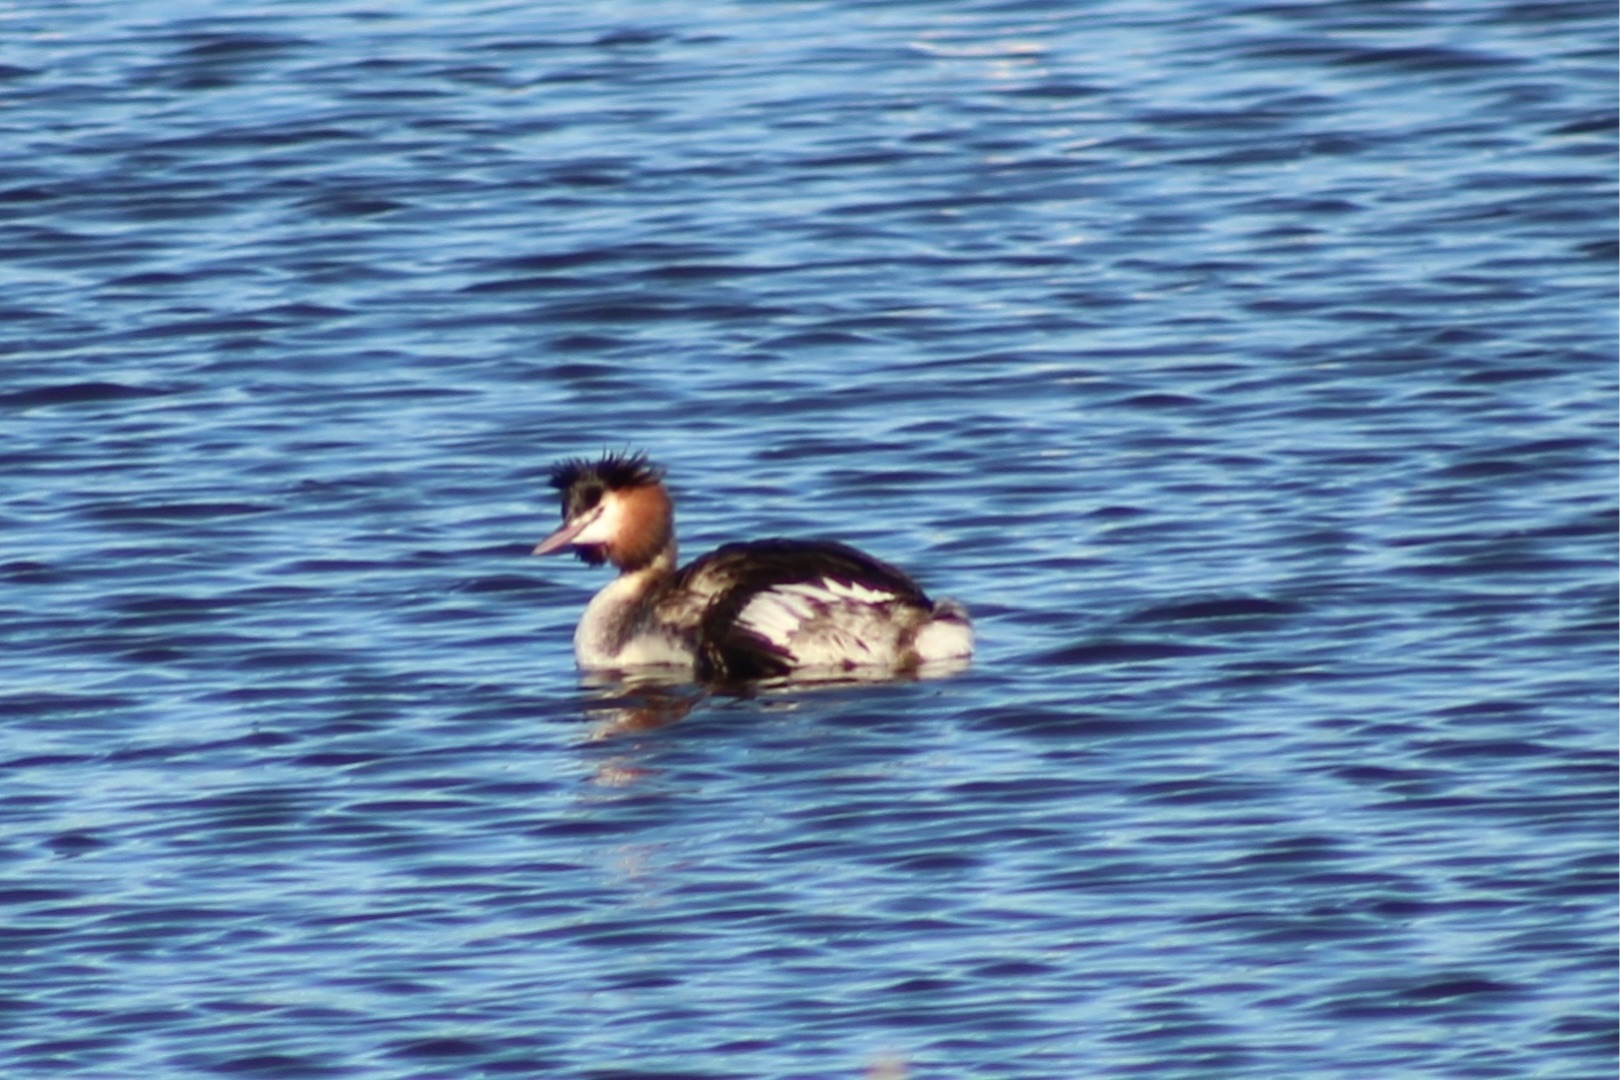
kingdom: Animalia
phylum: Chordata
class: Aves
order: Podicipediformes
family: Podicipedidae
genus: Podiceps
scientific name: Podiceps cristatus
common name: Toppet lappedykker
